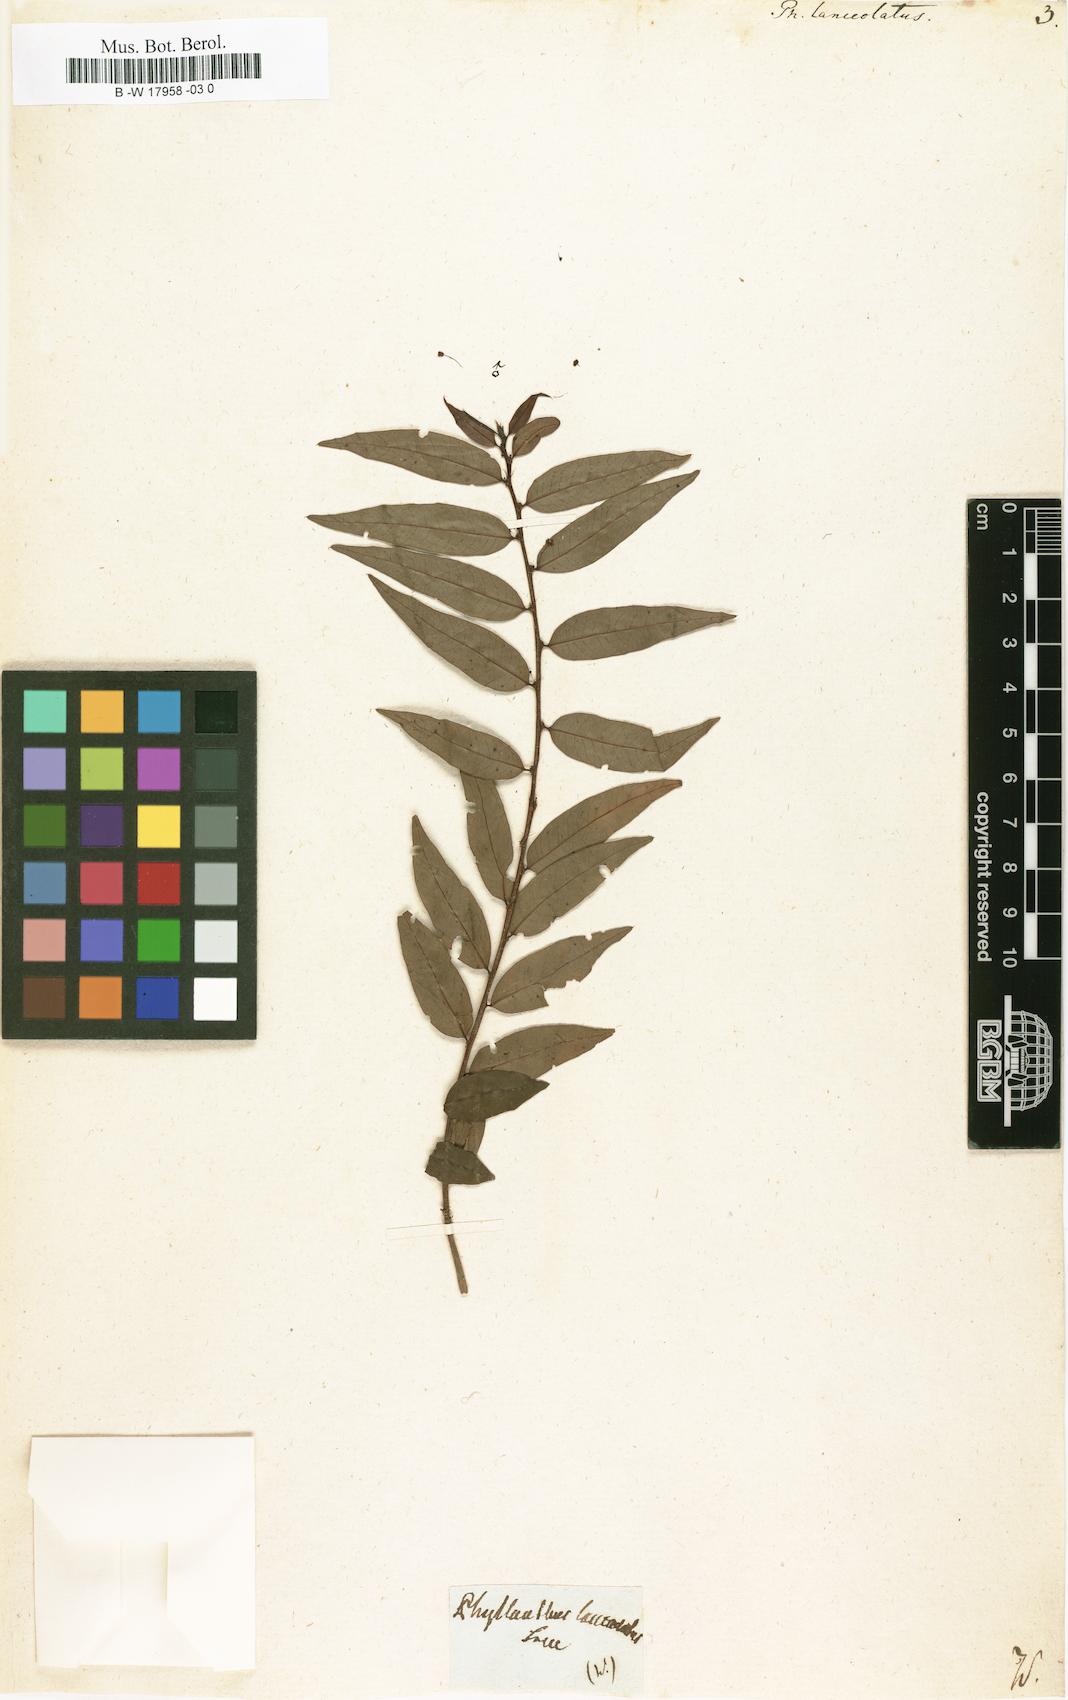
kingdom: Plantae
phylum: Tracheophyta
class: Magnoliopsida
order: Malpighiales
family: Phyllanthaceae
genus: Phyllanthus
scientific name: Phyllanthus lanceolatus
